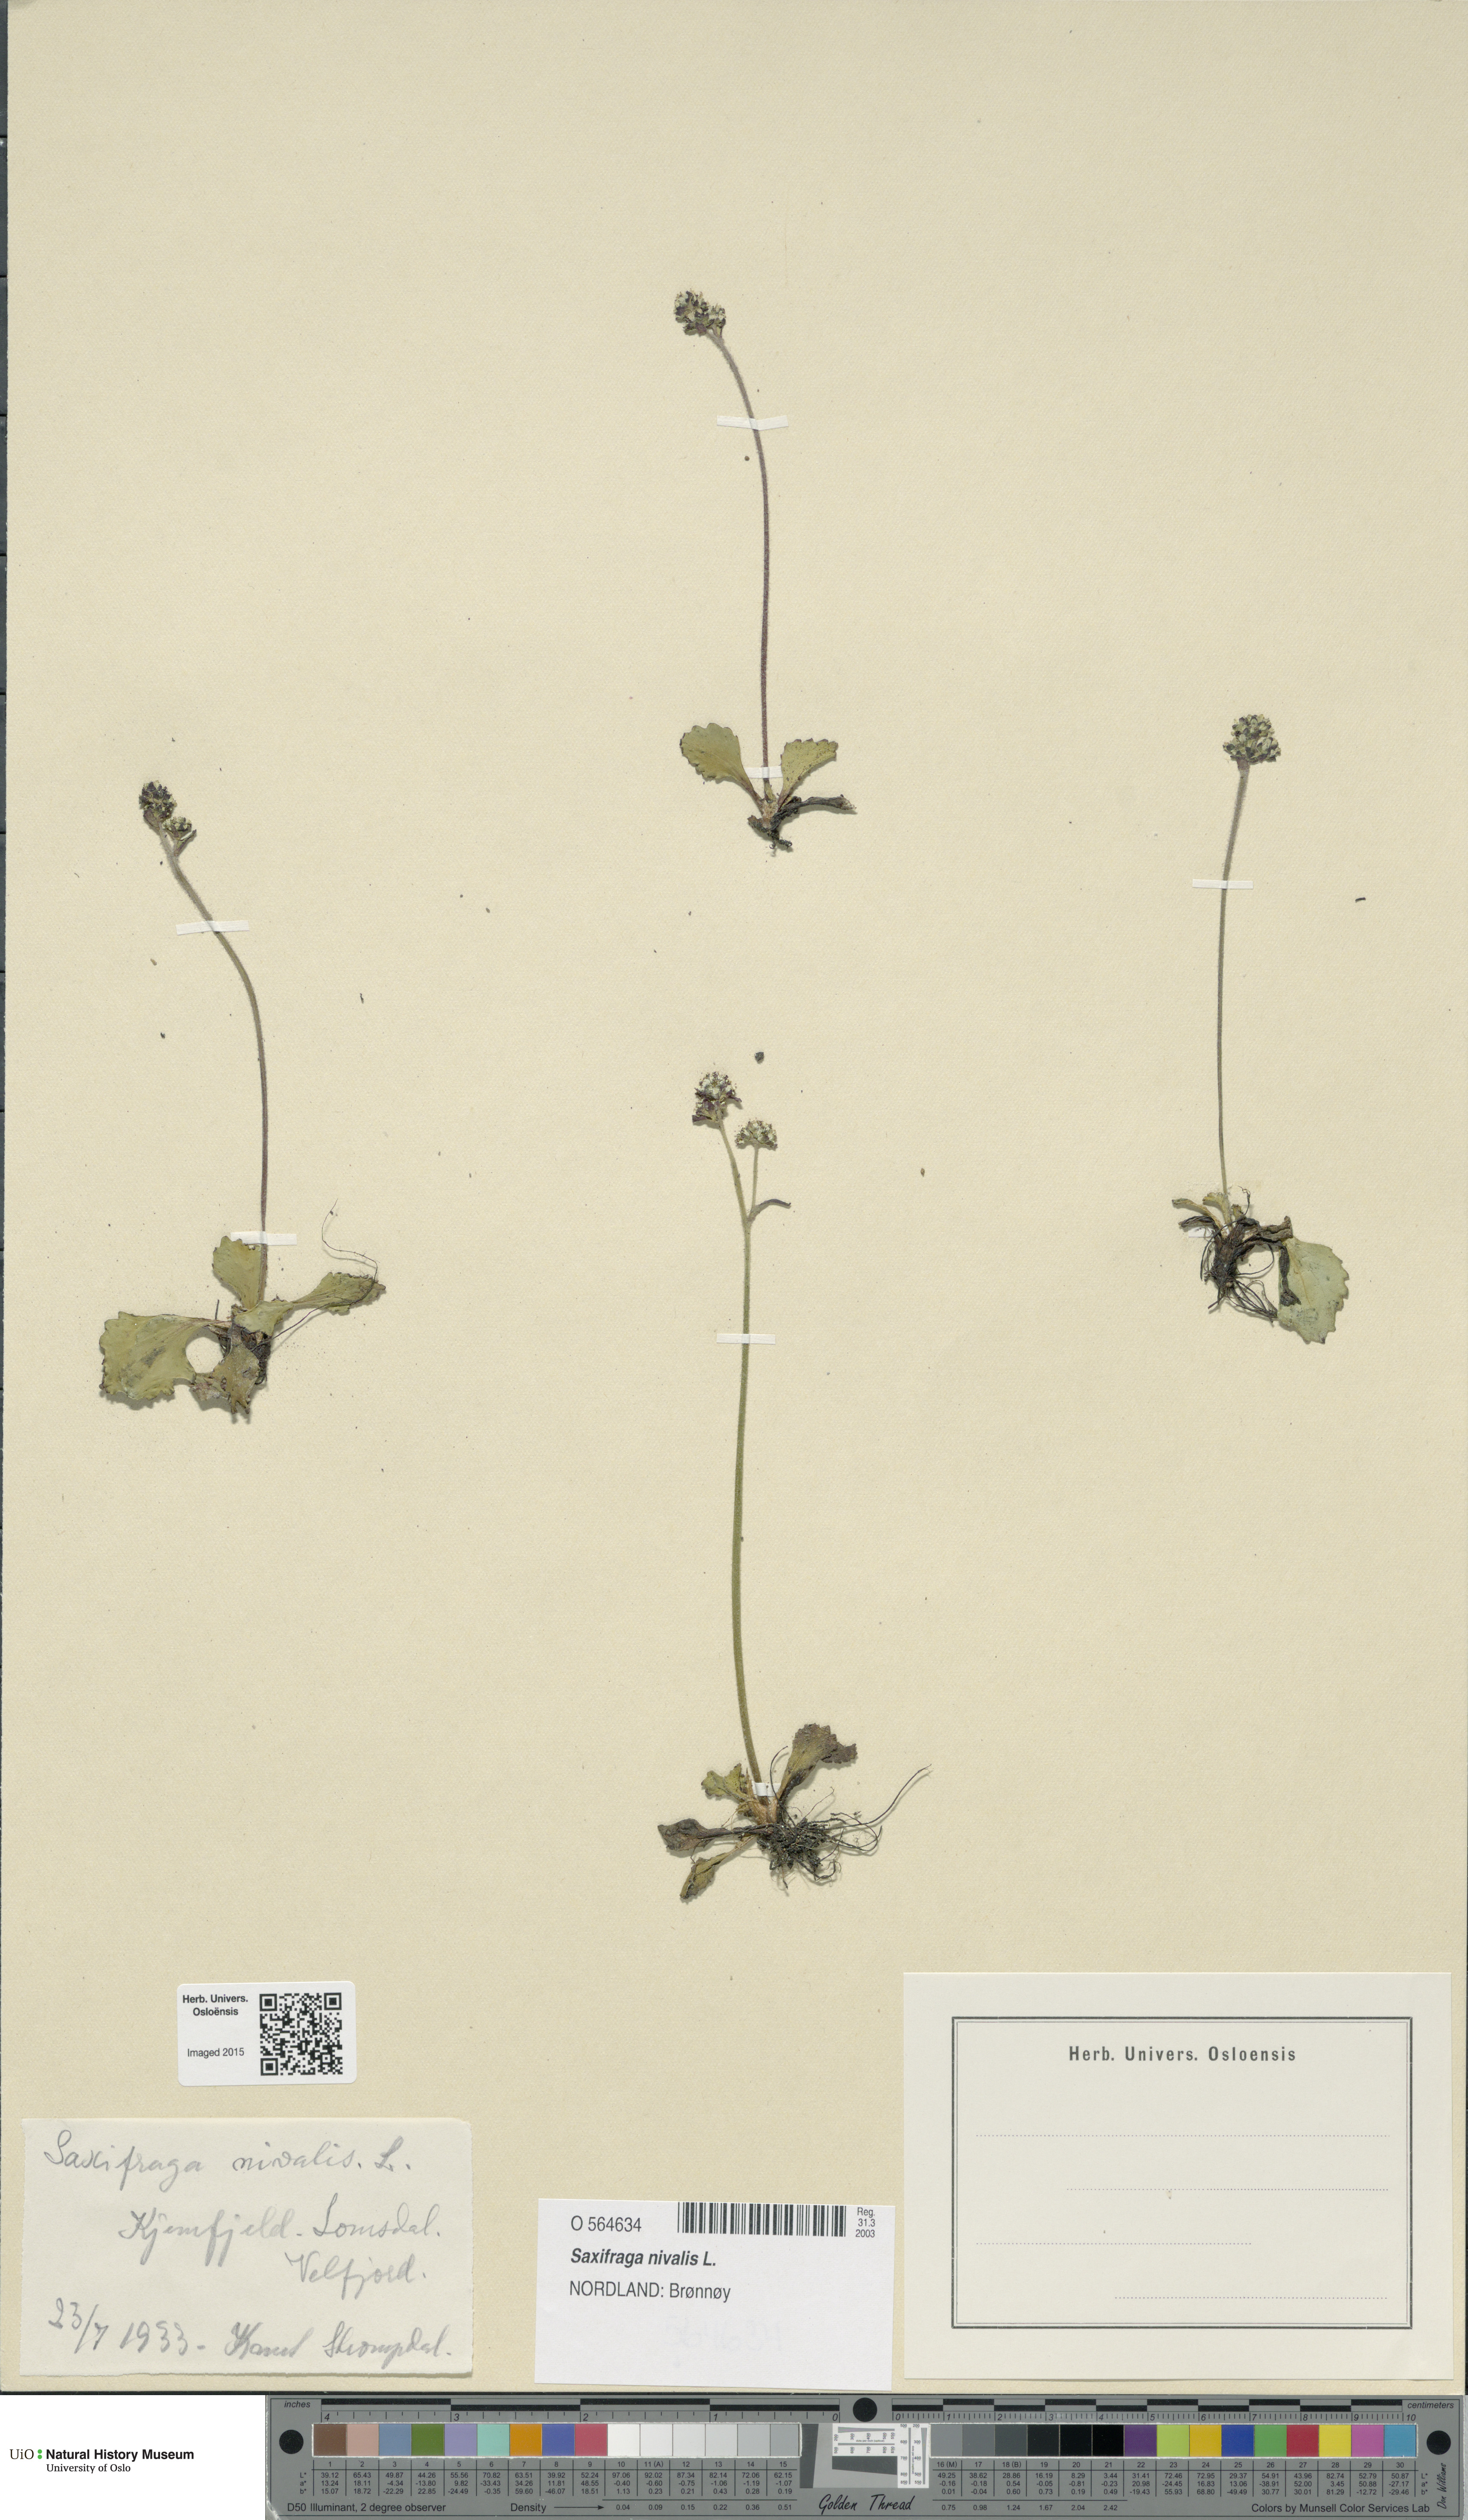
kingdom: Plantae
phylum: Tracheophyta
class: Magnoliopsida
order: Saxifragales
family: Saxifragaceae
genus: Micranthes
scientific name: Micranthes nivalis
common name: Alpine saxifrage
